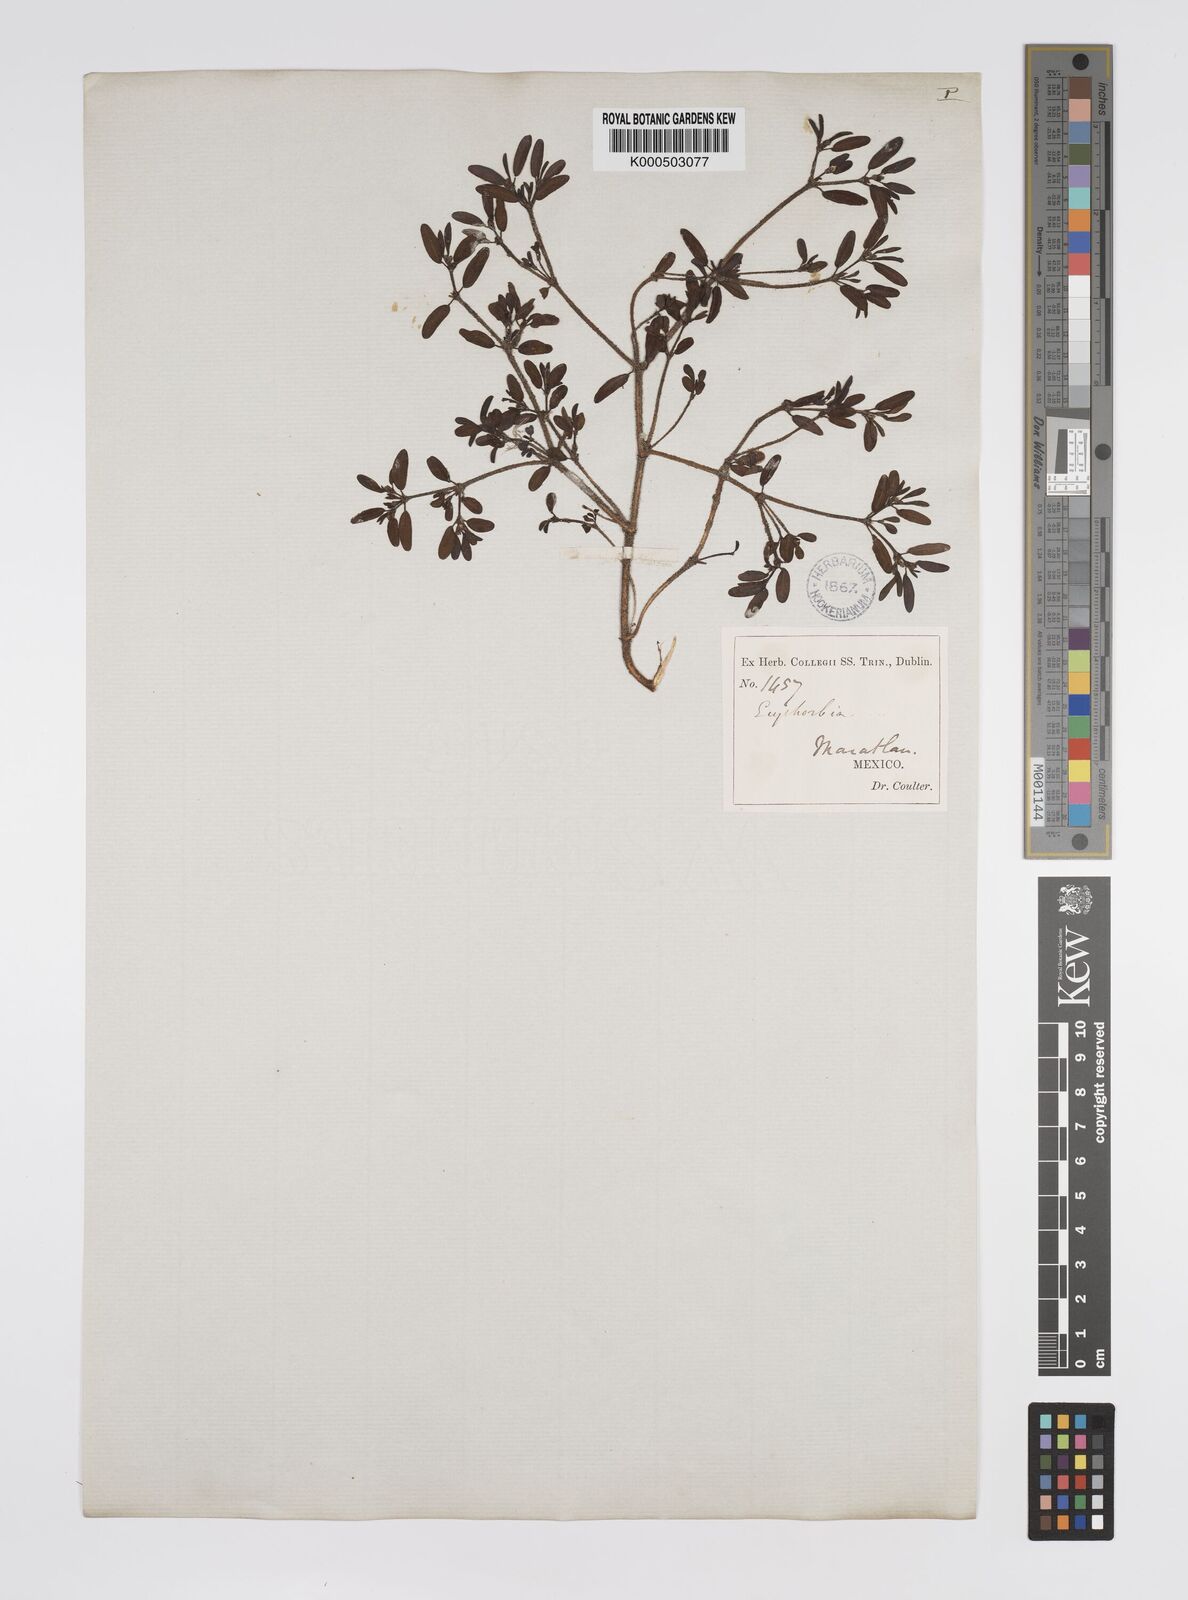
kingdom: Plantae
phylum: Tracheophyta
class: Magnoliopsida
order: Malpighiales
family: Euphorbiaceae
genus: Euphorbia
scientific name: Euphorbia
